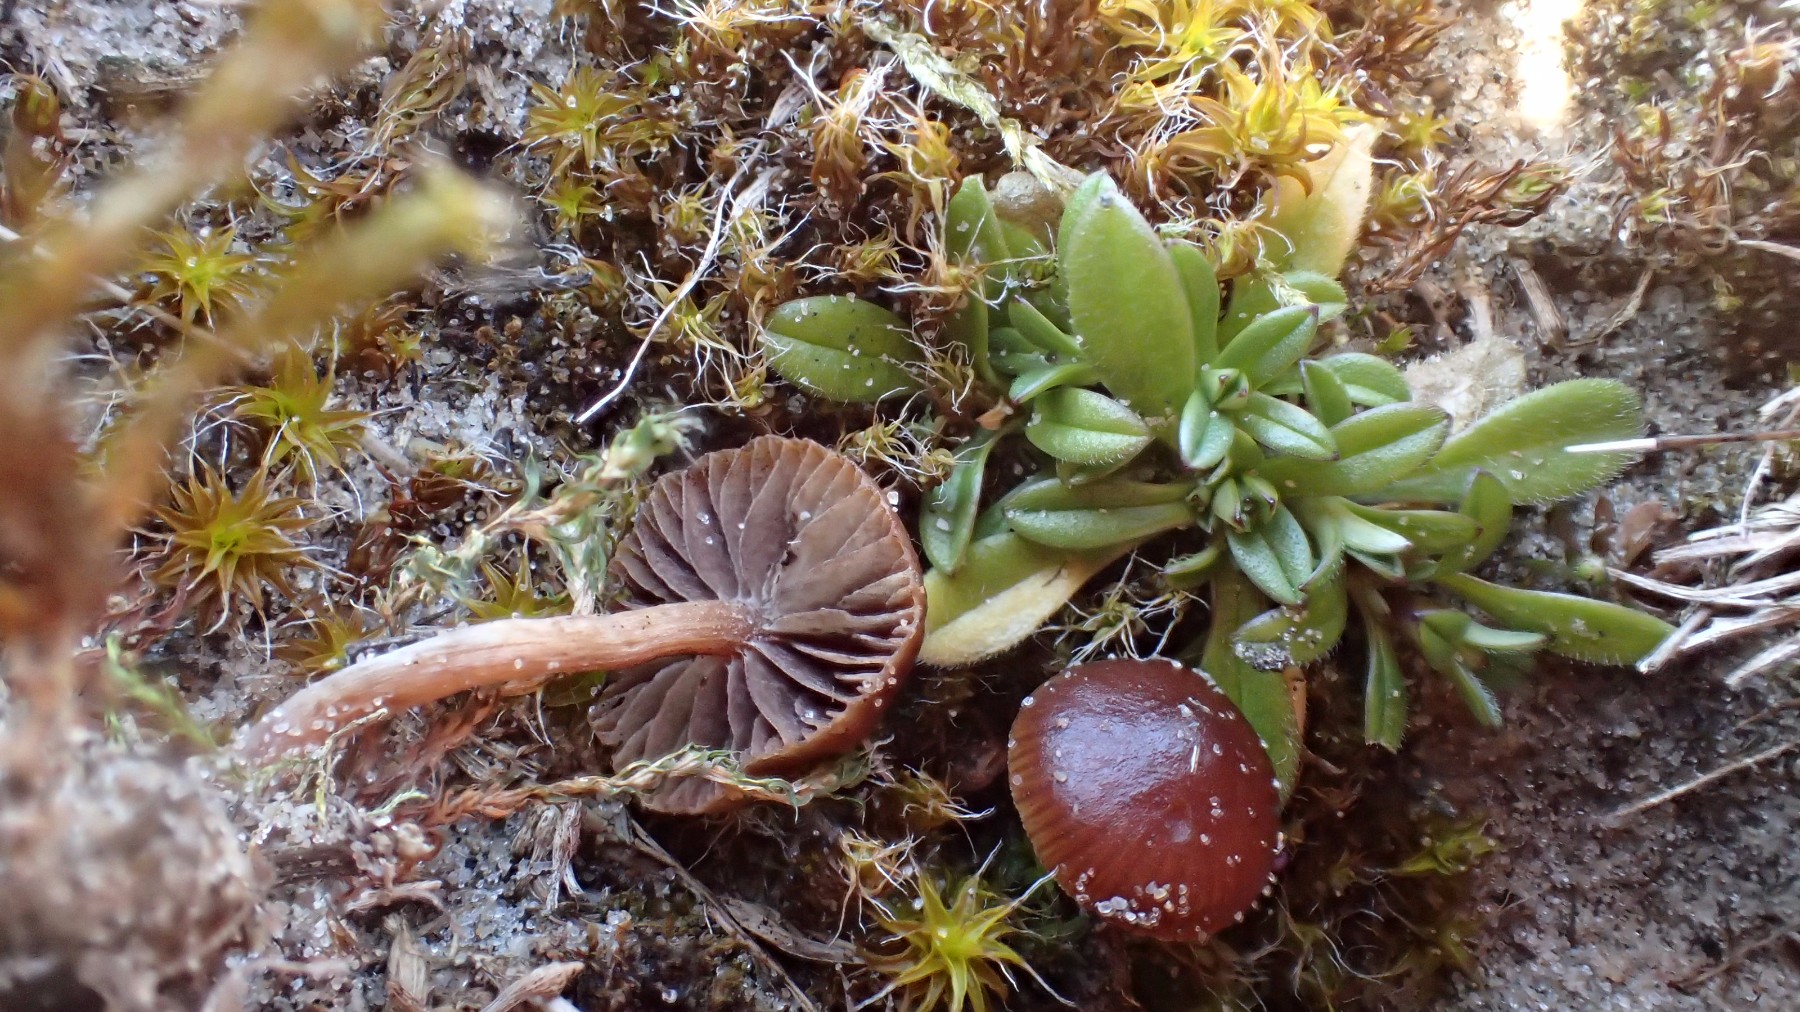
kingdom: Fungi
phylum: Basidiomycota
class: Agaricomycetes
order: Agaricales
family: Strophariaceae
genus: Deconica
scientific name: Deconica montana
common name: rødbrun stråhat
